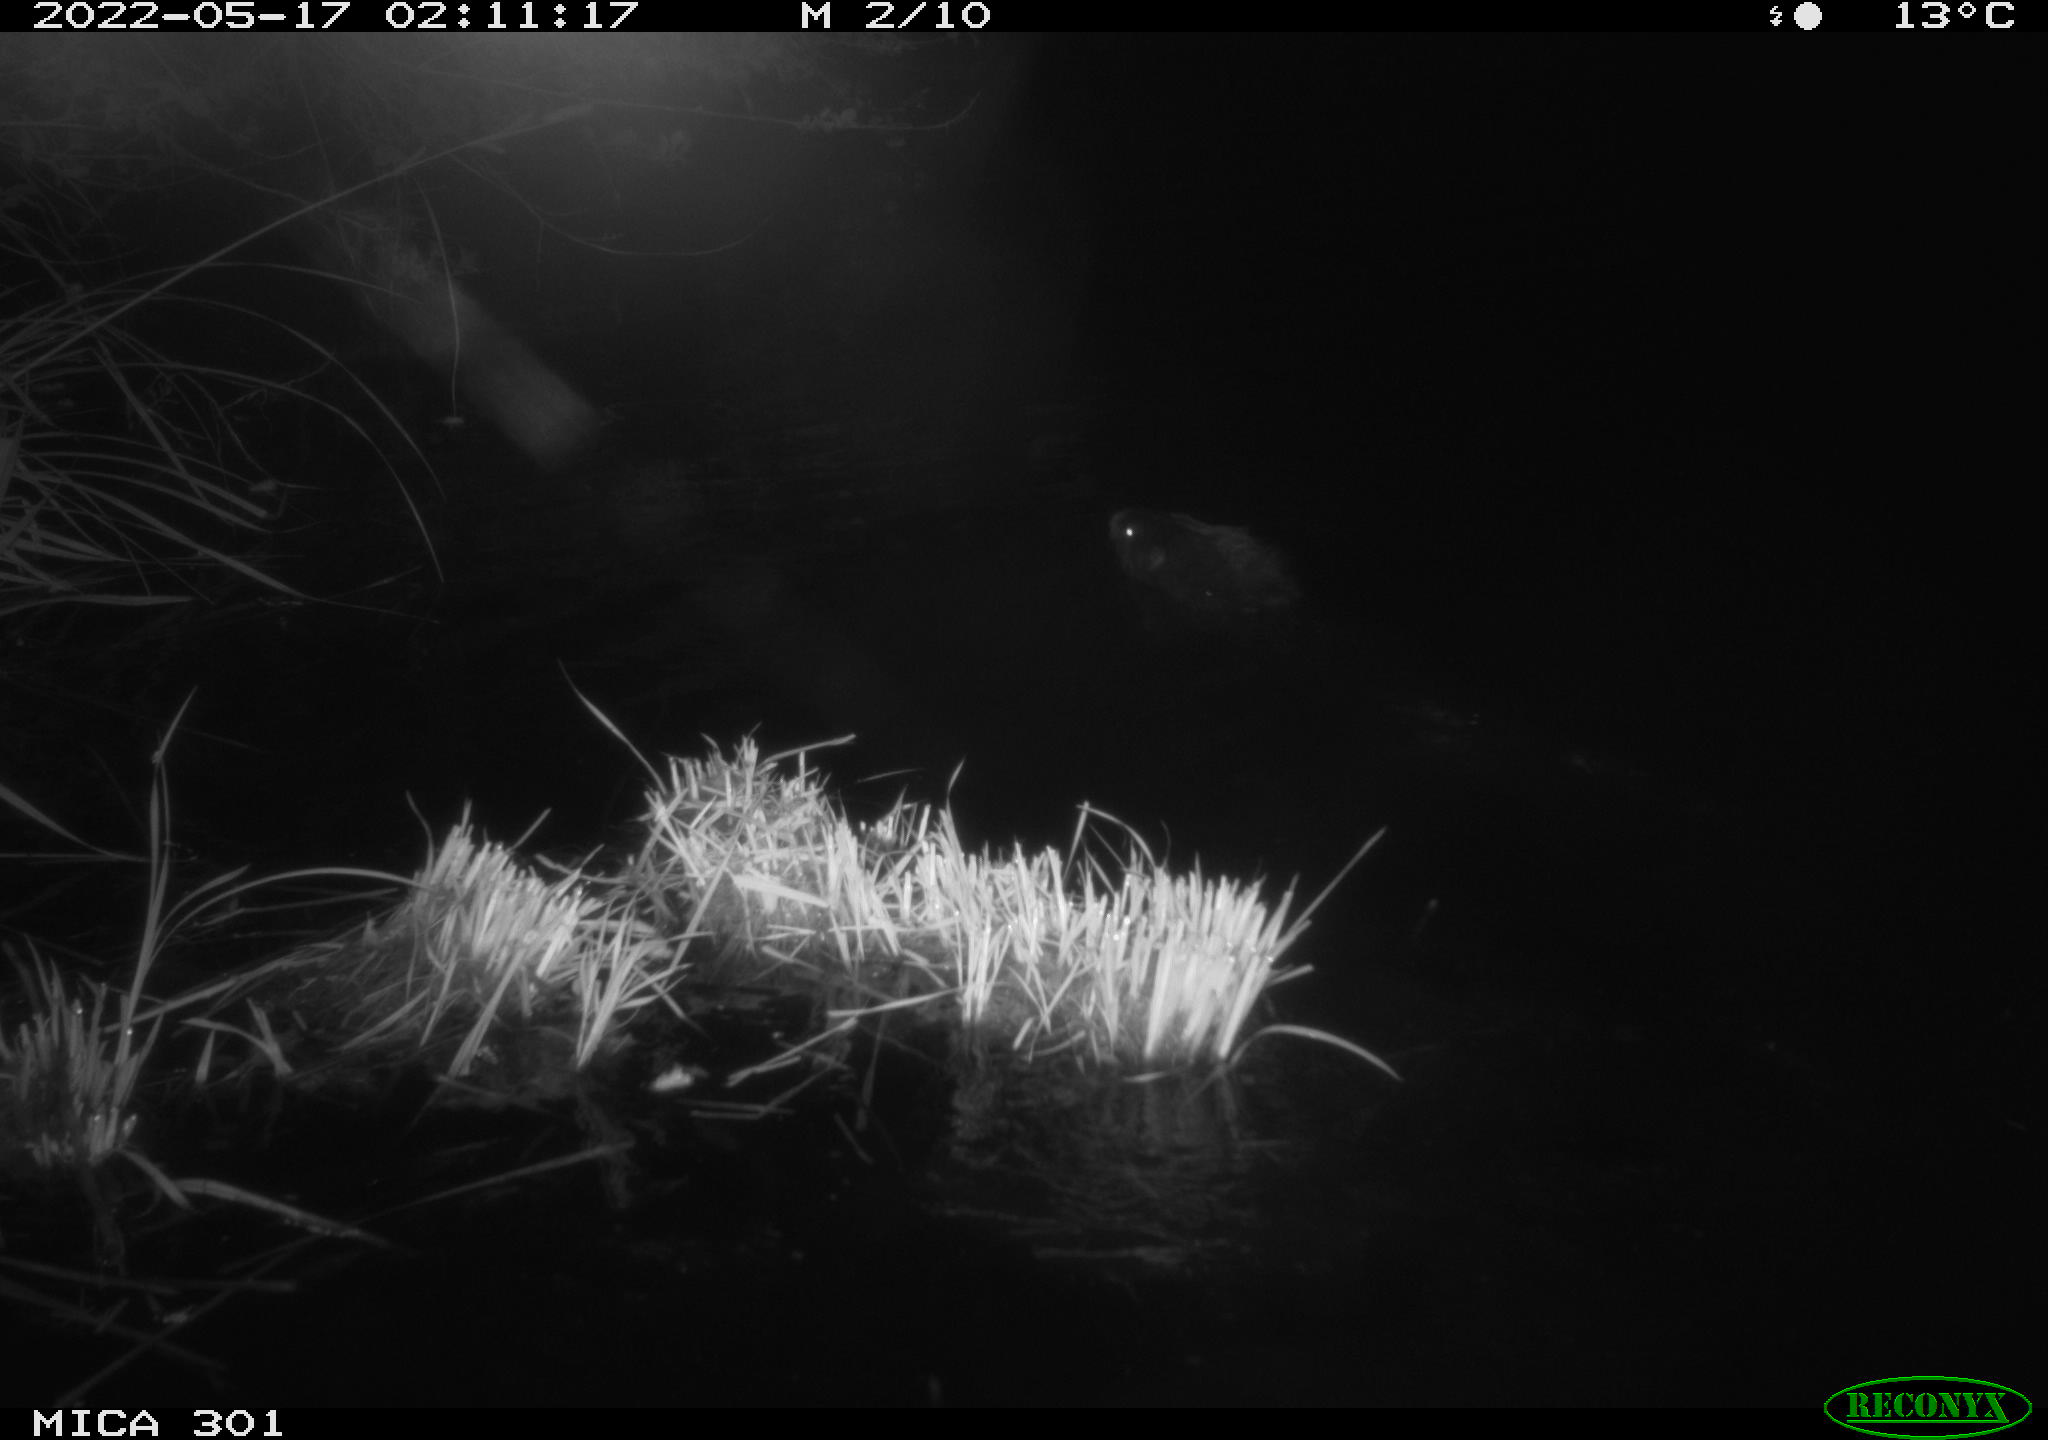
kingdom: Animalia
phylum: Chordata
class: Mammalia
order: Rodentia
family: Castoridae
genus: Castor
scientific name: Castor fiber
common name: Eurasian beaver
